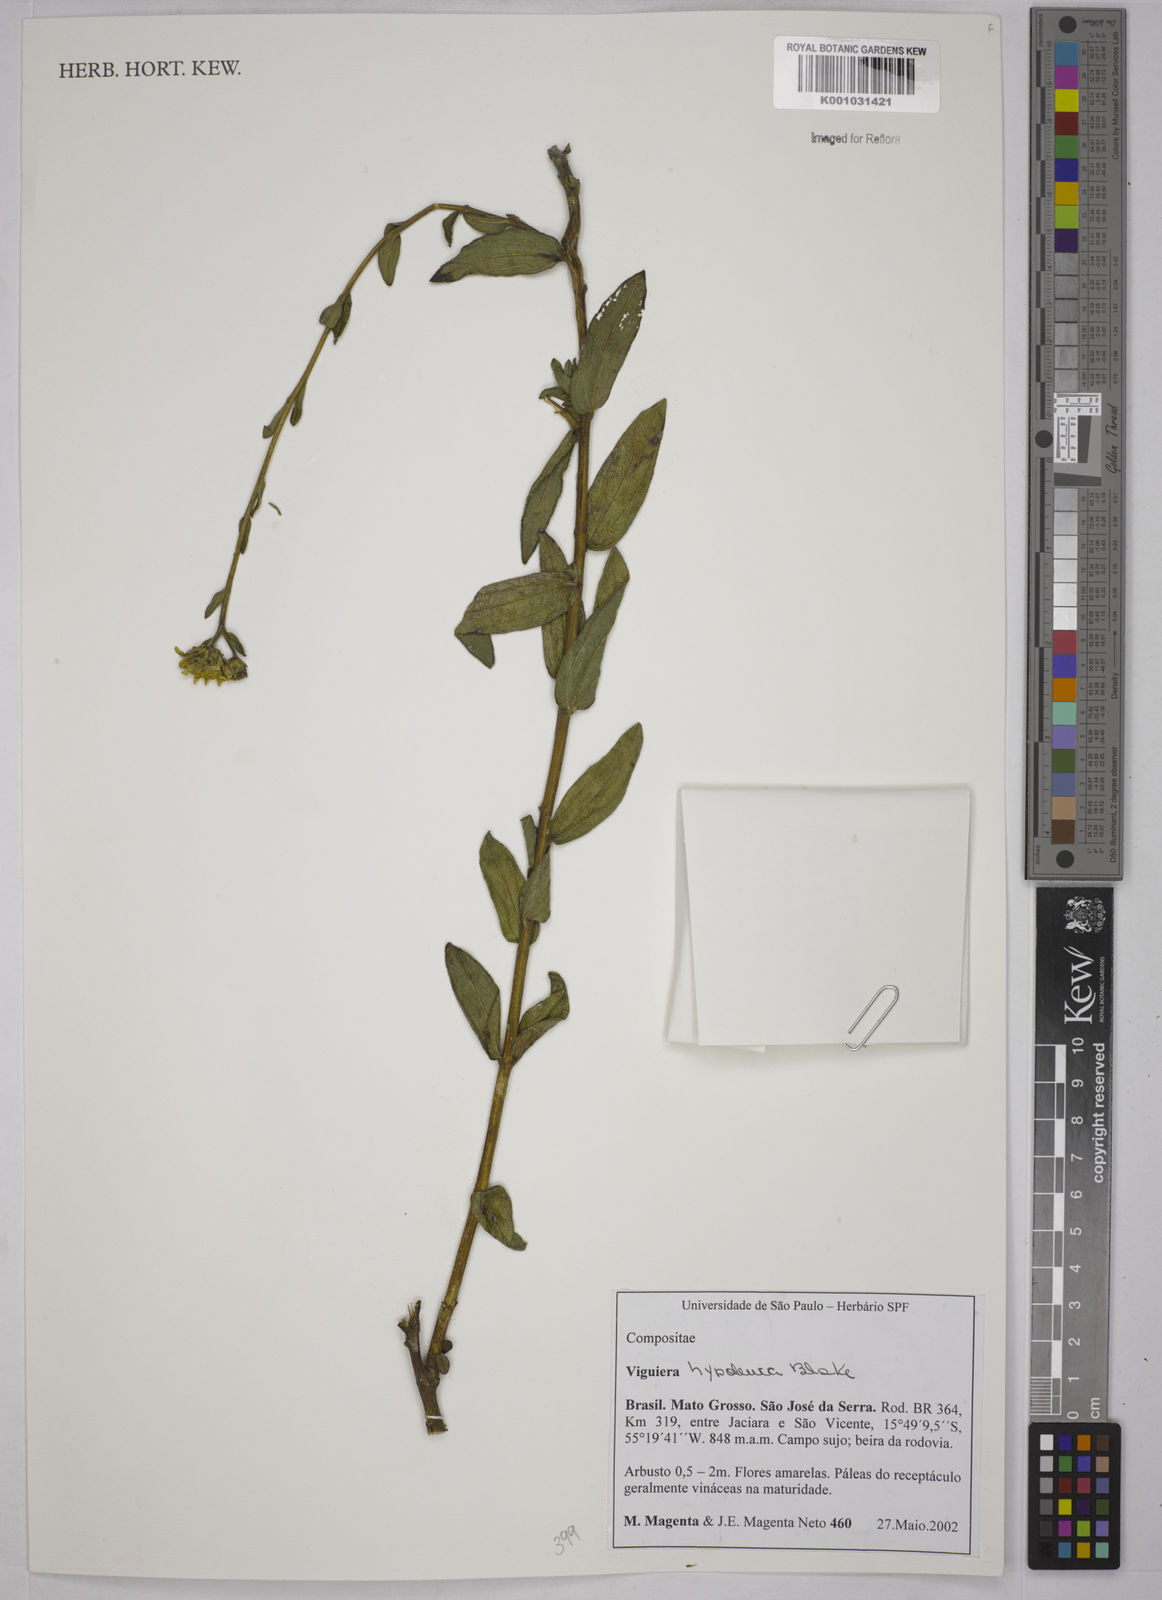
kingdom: Plantae
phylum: Tracheophyta
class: Magnoliopsida
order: Asterales
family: Asteraceae
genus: Aldama
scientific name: Aldama hypoleuca
